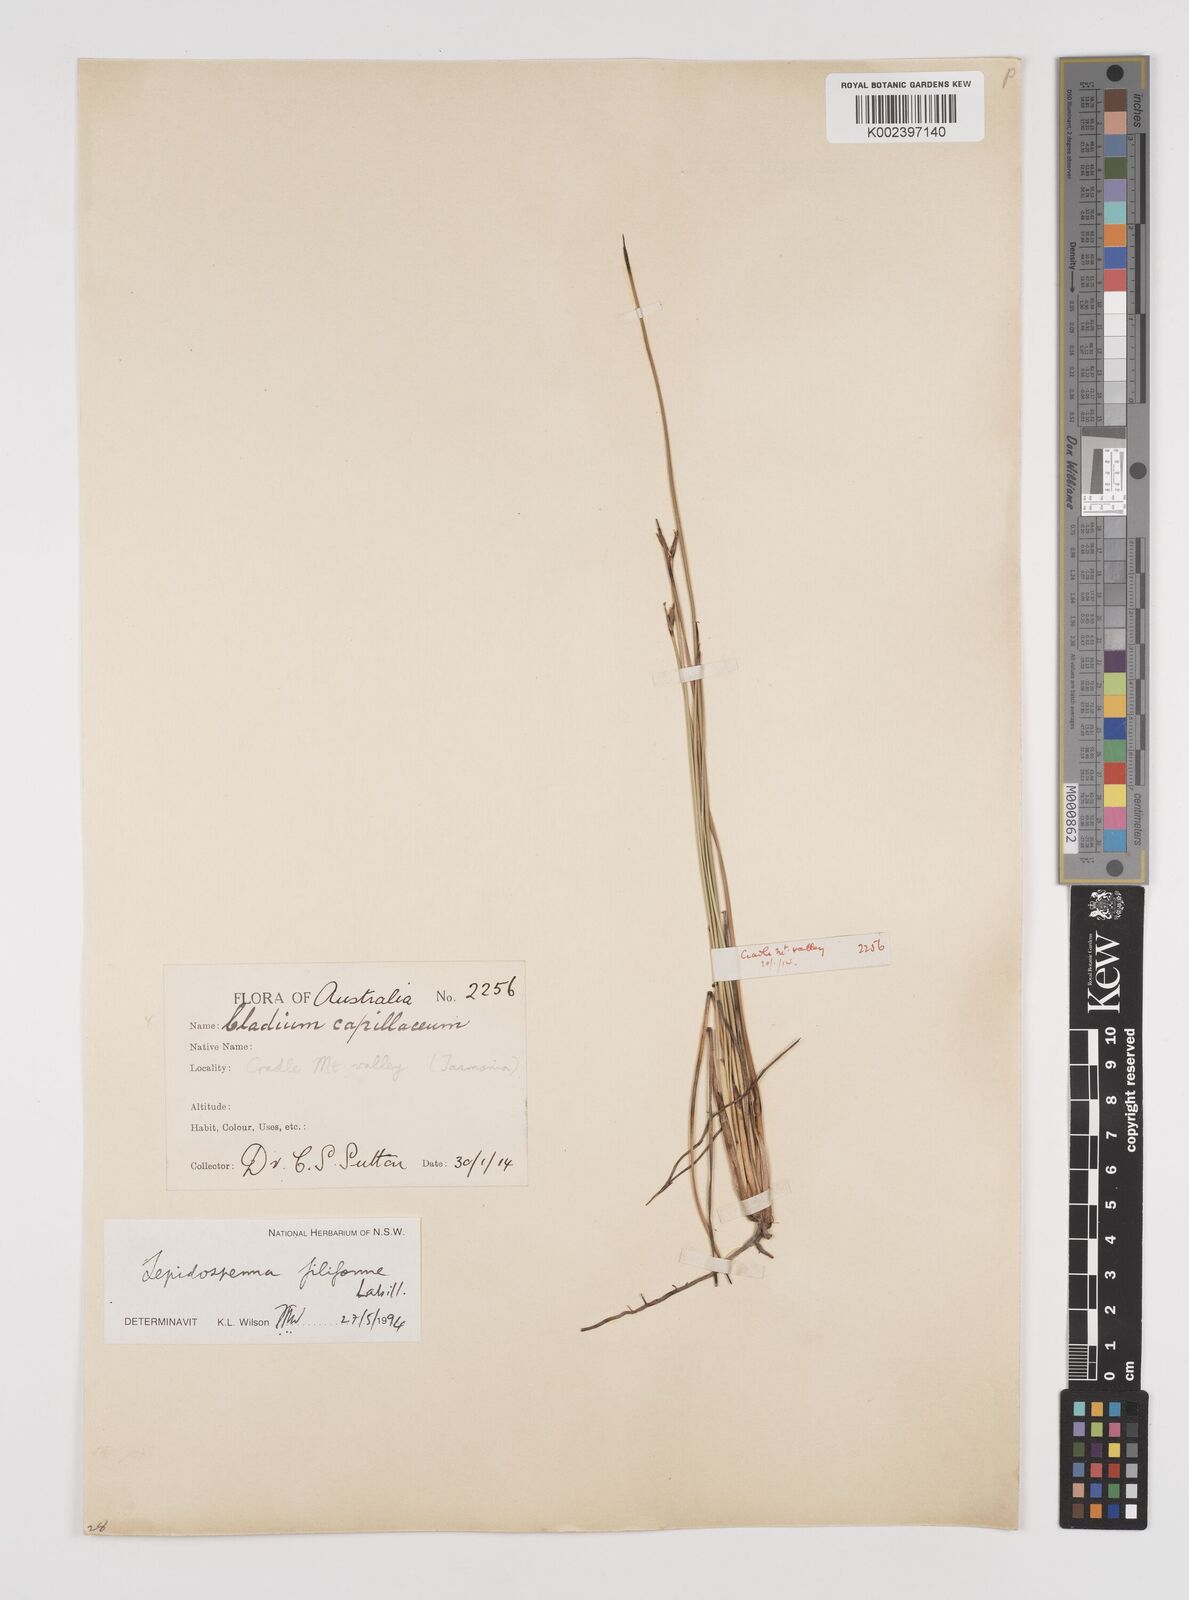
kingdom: Plantae
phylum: Tracheophyta
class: Liliopsida
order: Poales
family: Cyperaceae
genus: Lepidosperma
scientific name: Lepidosperma filiforme
